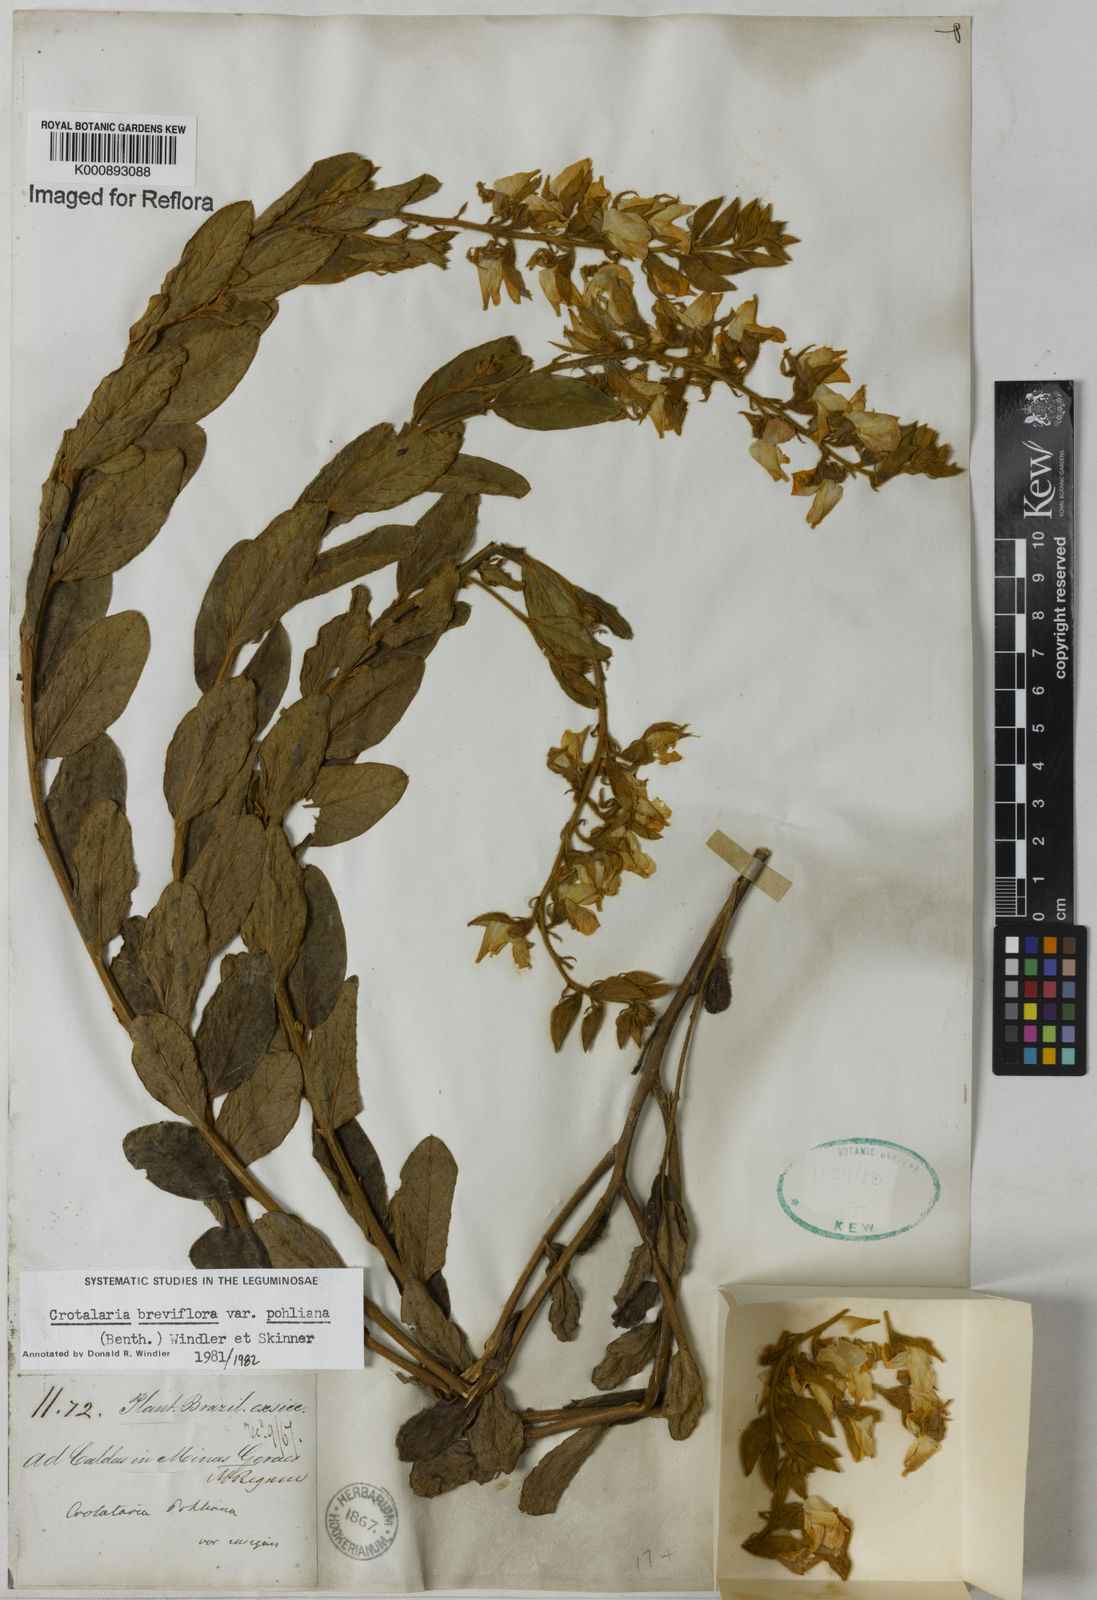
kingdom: Plantae
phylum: Tracheophyta
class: Magnoliopsida
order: Fabales
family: Fabaceae
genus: Crotalaria
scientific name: Crotalaria subdecurrens
